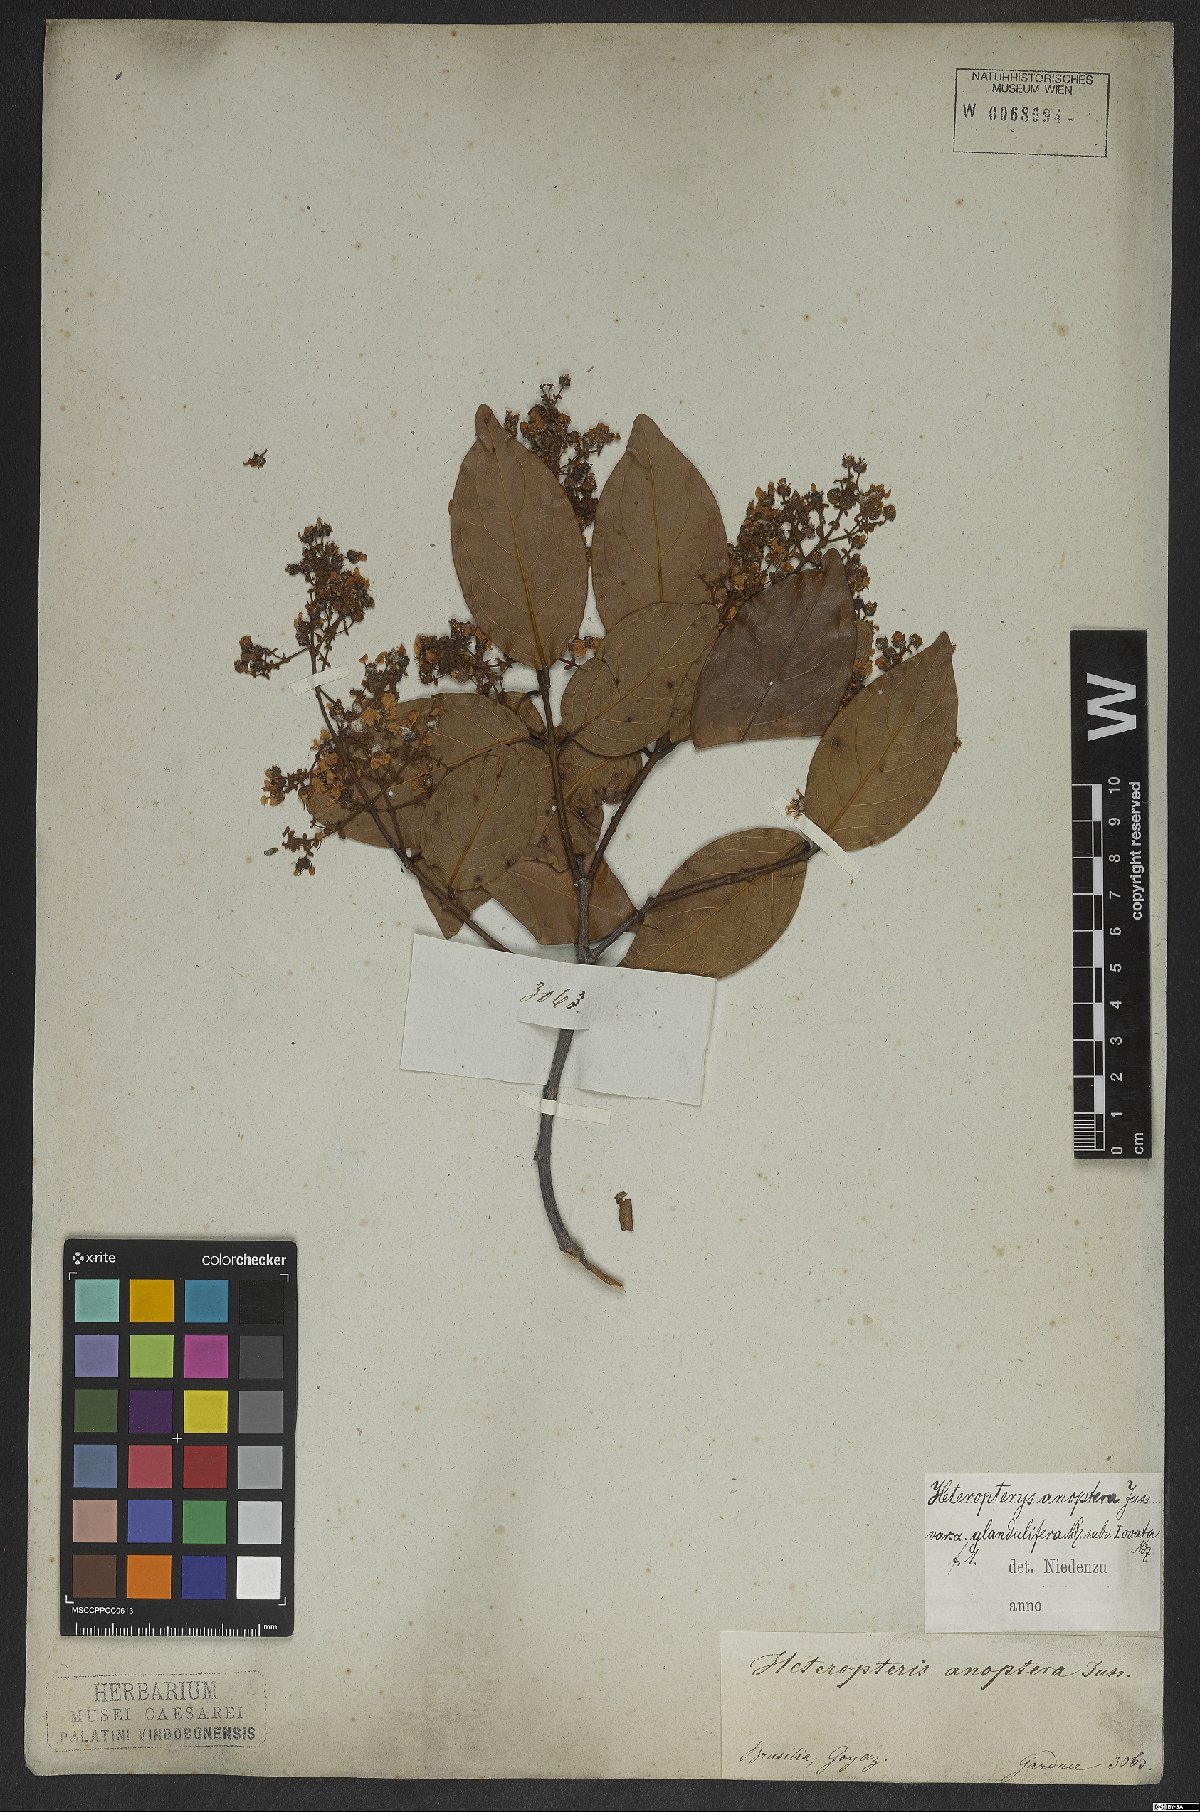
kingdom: Plantae
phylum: Tracheophyta
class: Magnoliopsida
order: Malpighiales
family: Malpighiaceae
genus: Heteropterys
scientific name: Heteropterys anoptera
